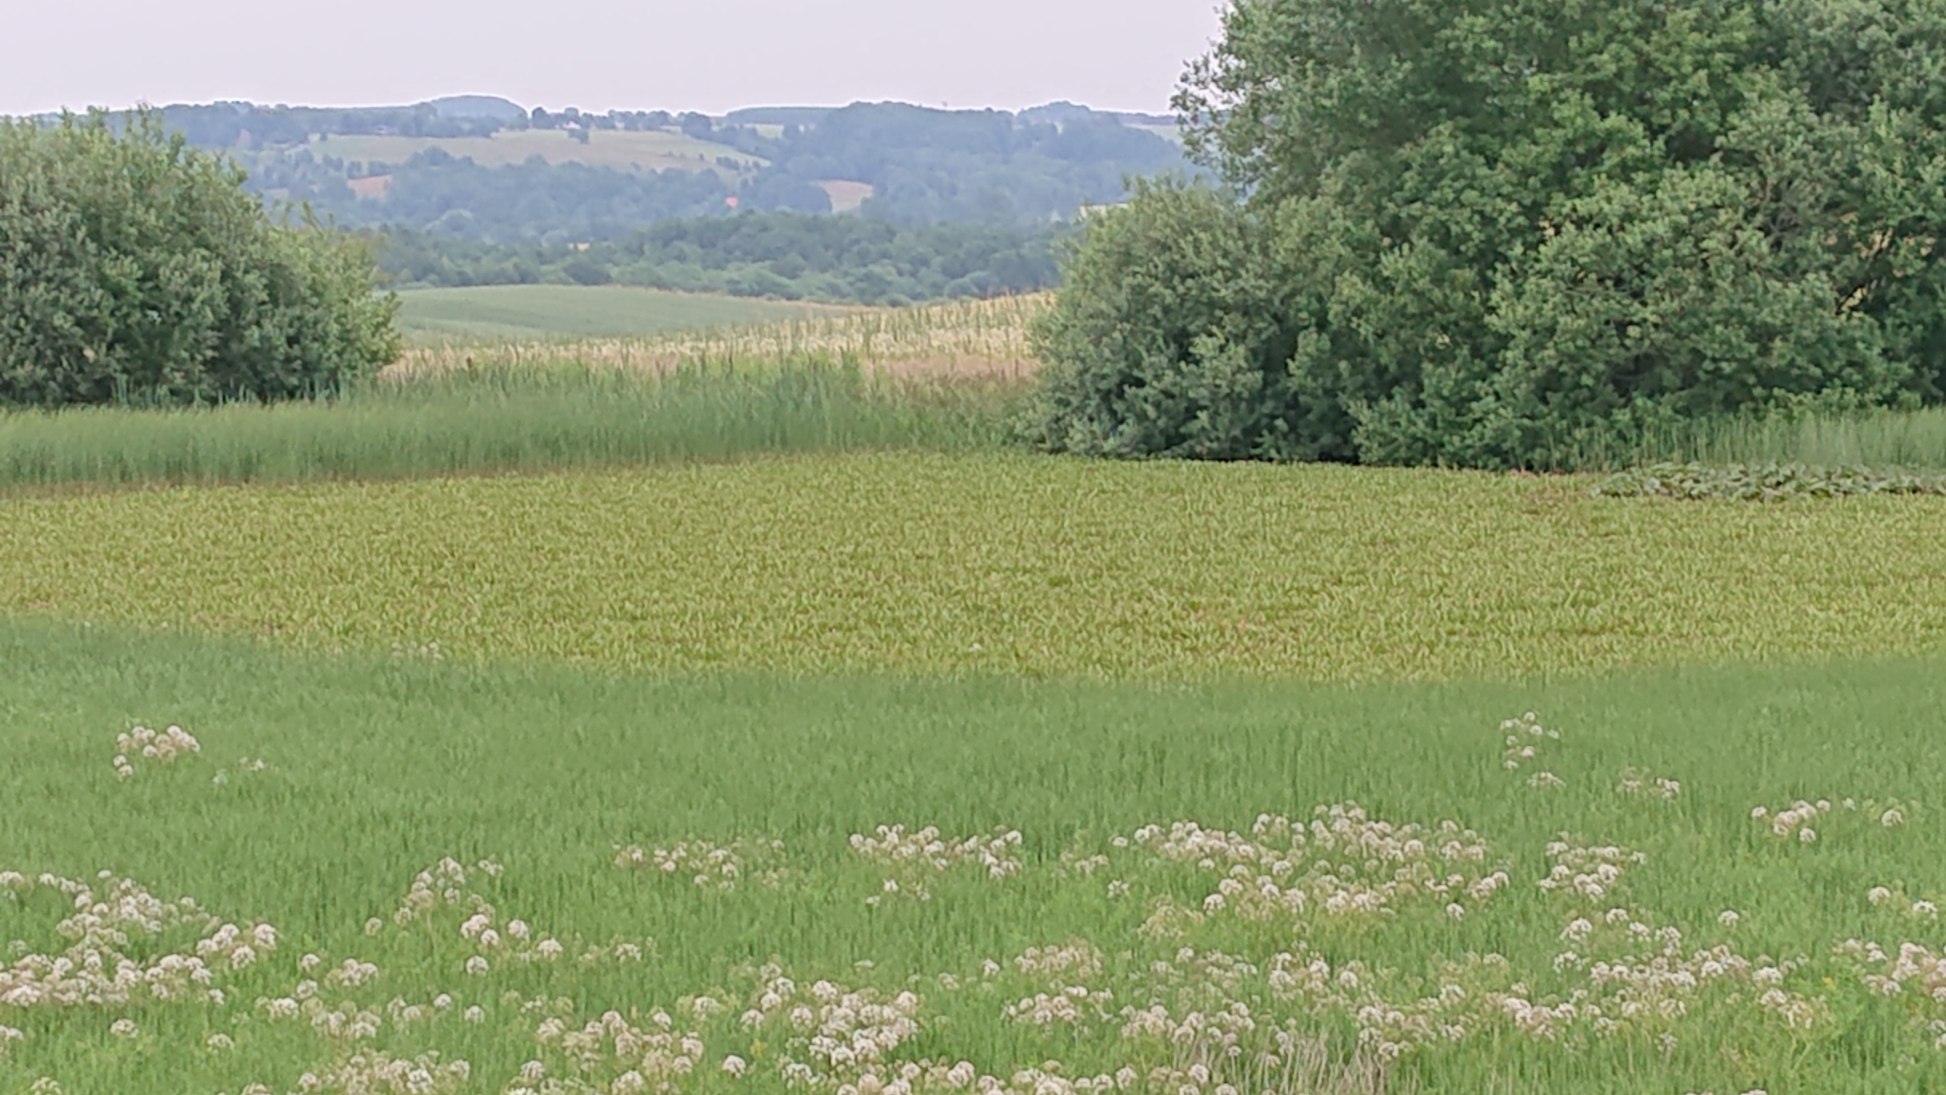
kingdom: Plantae
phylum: Tracheophyta
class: Liliopsida
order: Alismatales
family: Hydrocharitaceae
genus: Stratiotes
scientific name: Stratiotes aloides
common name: Krebseklo
